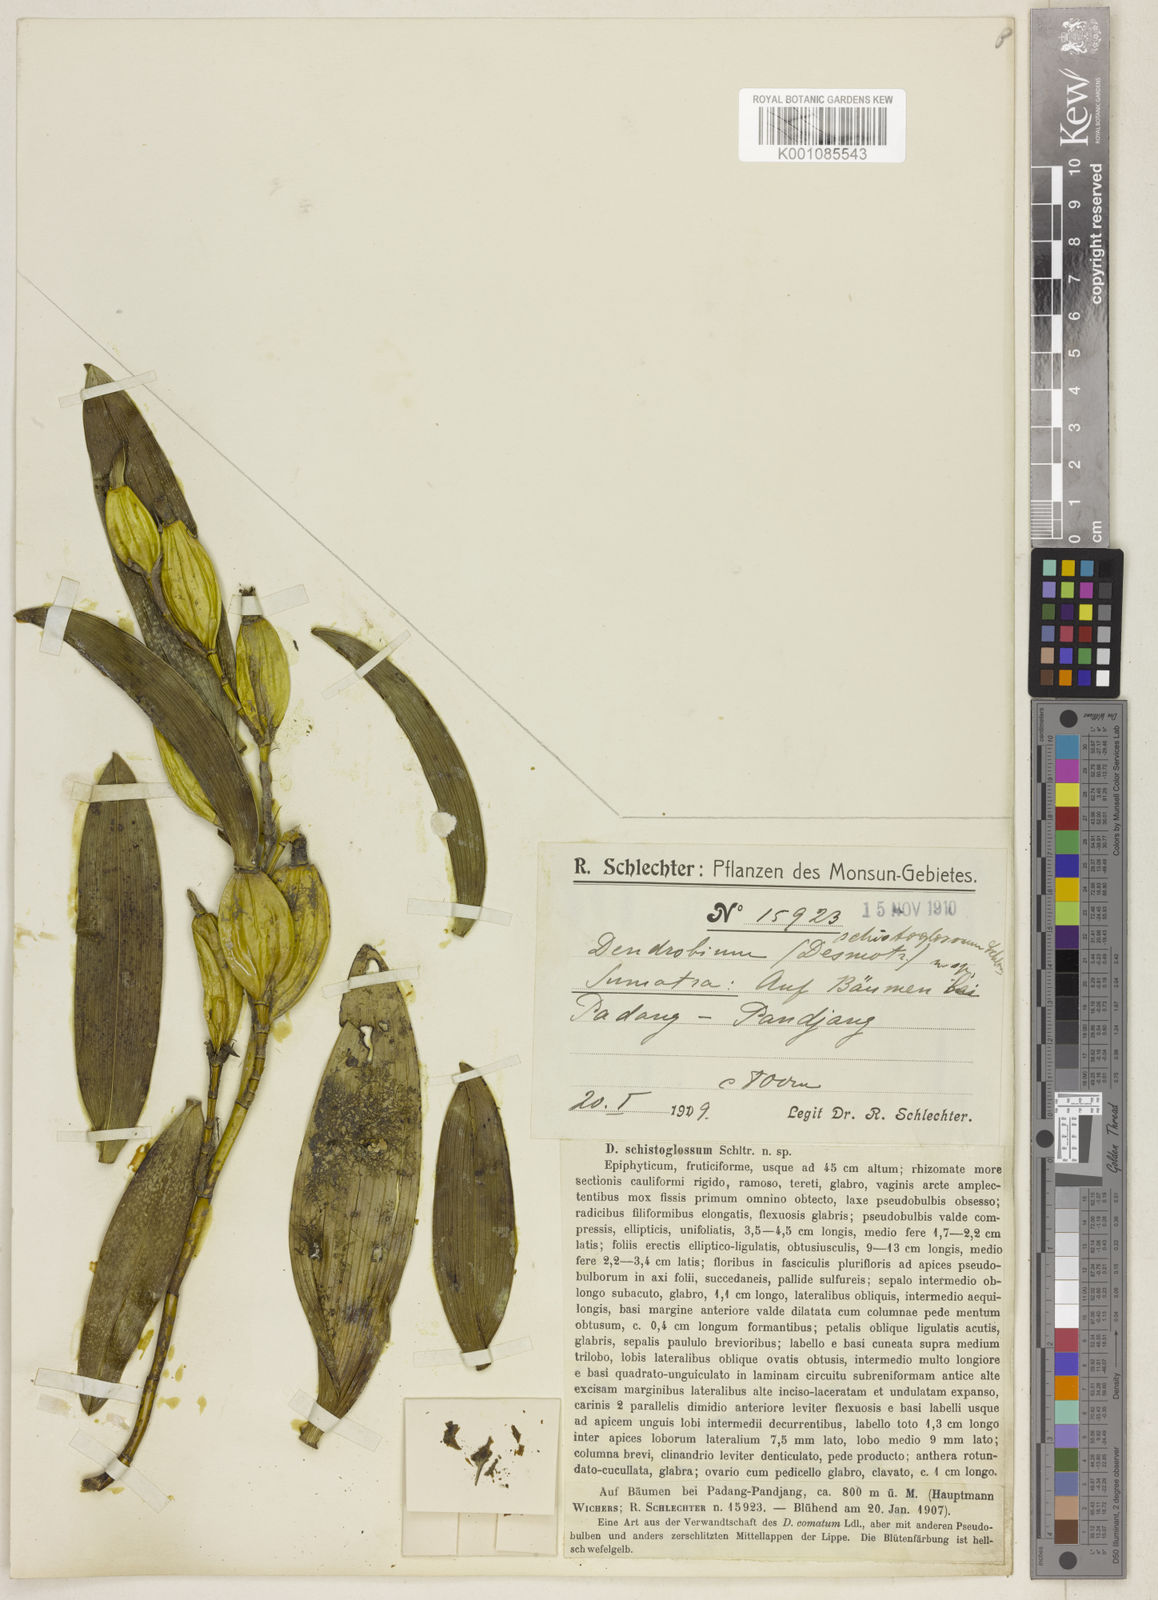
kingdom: Plantae
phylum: Tracheophyta
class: Liliopsida
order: Asparagales
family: Orchidaceae
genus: Dendrobium
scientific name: Dendrobium schistoglossum
